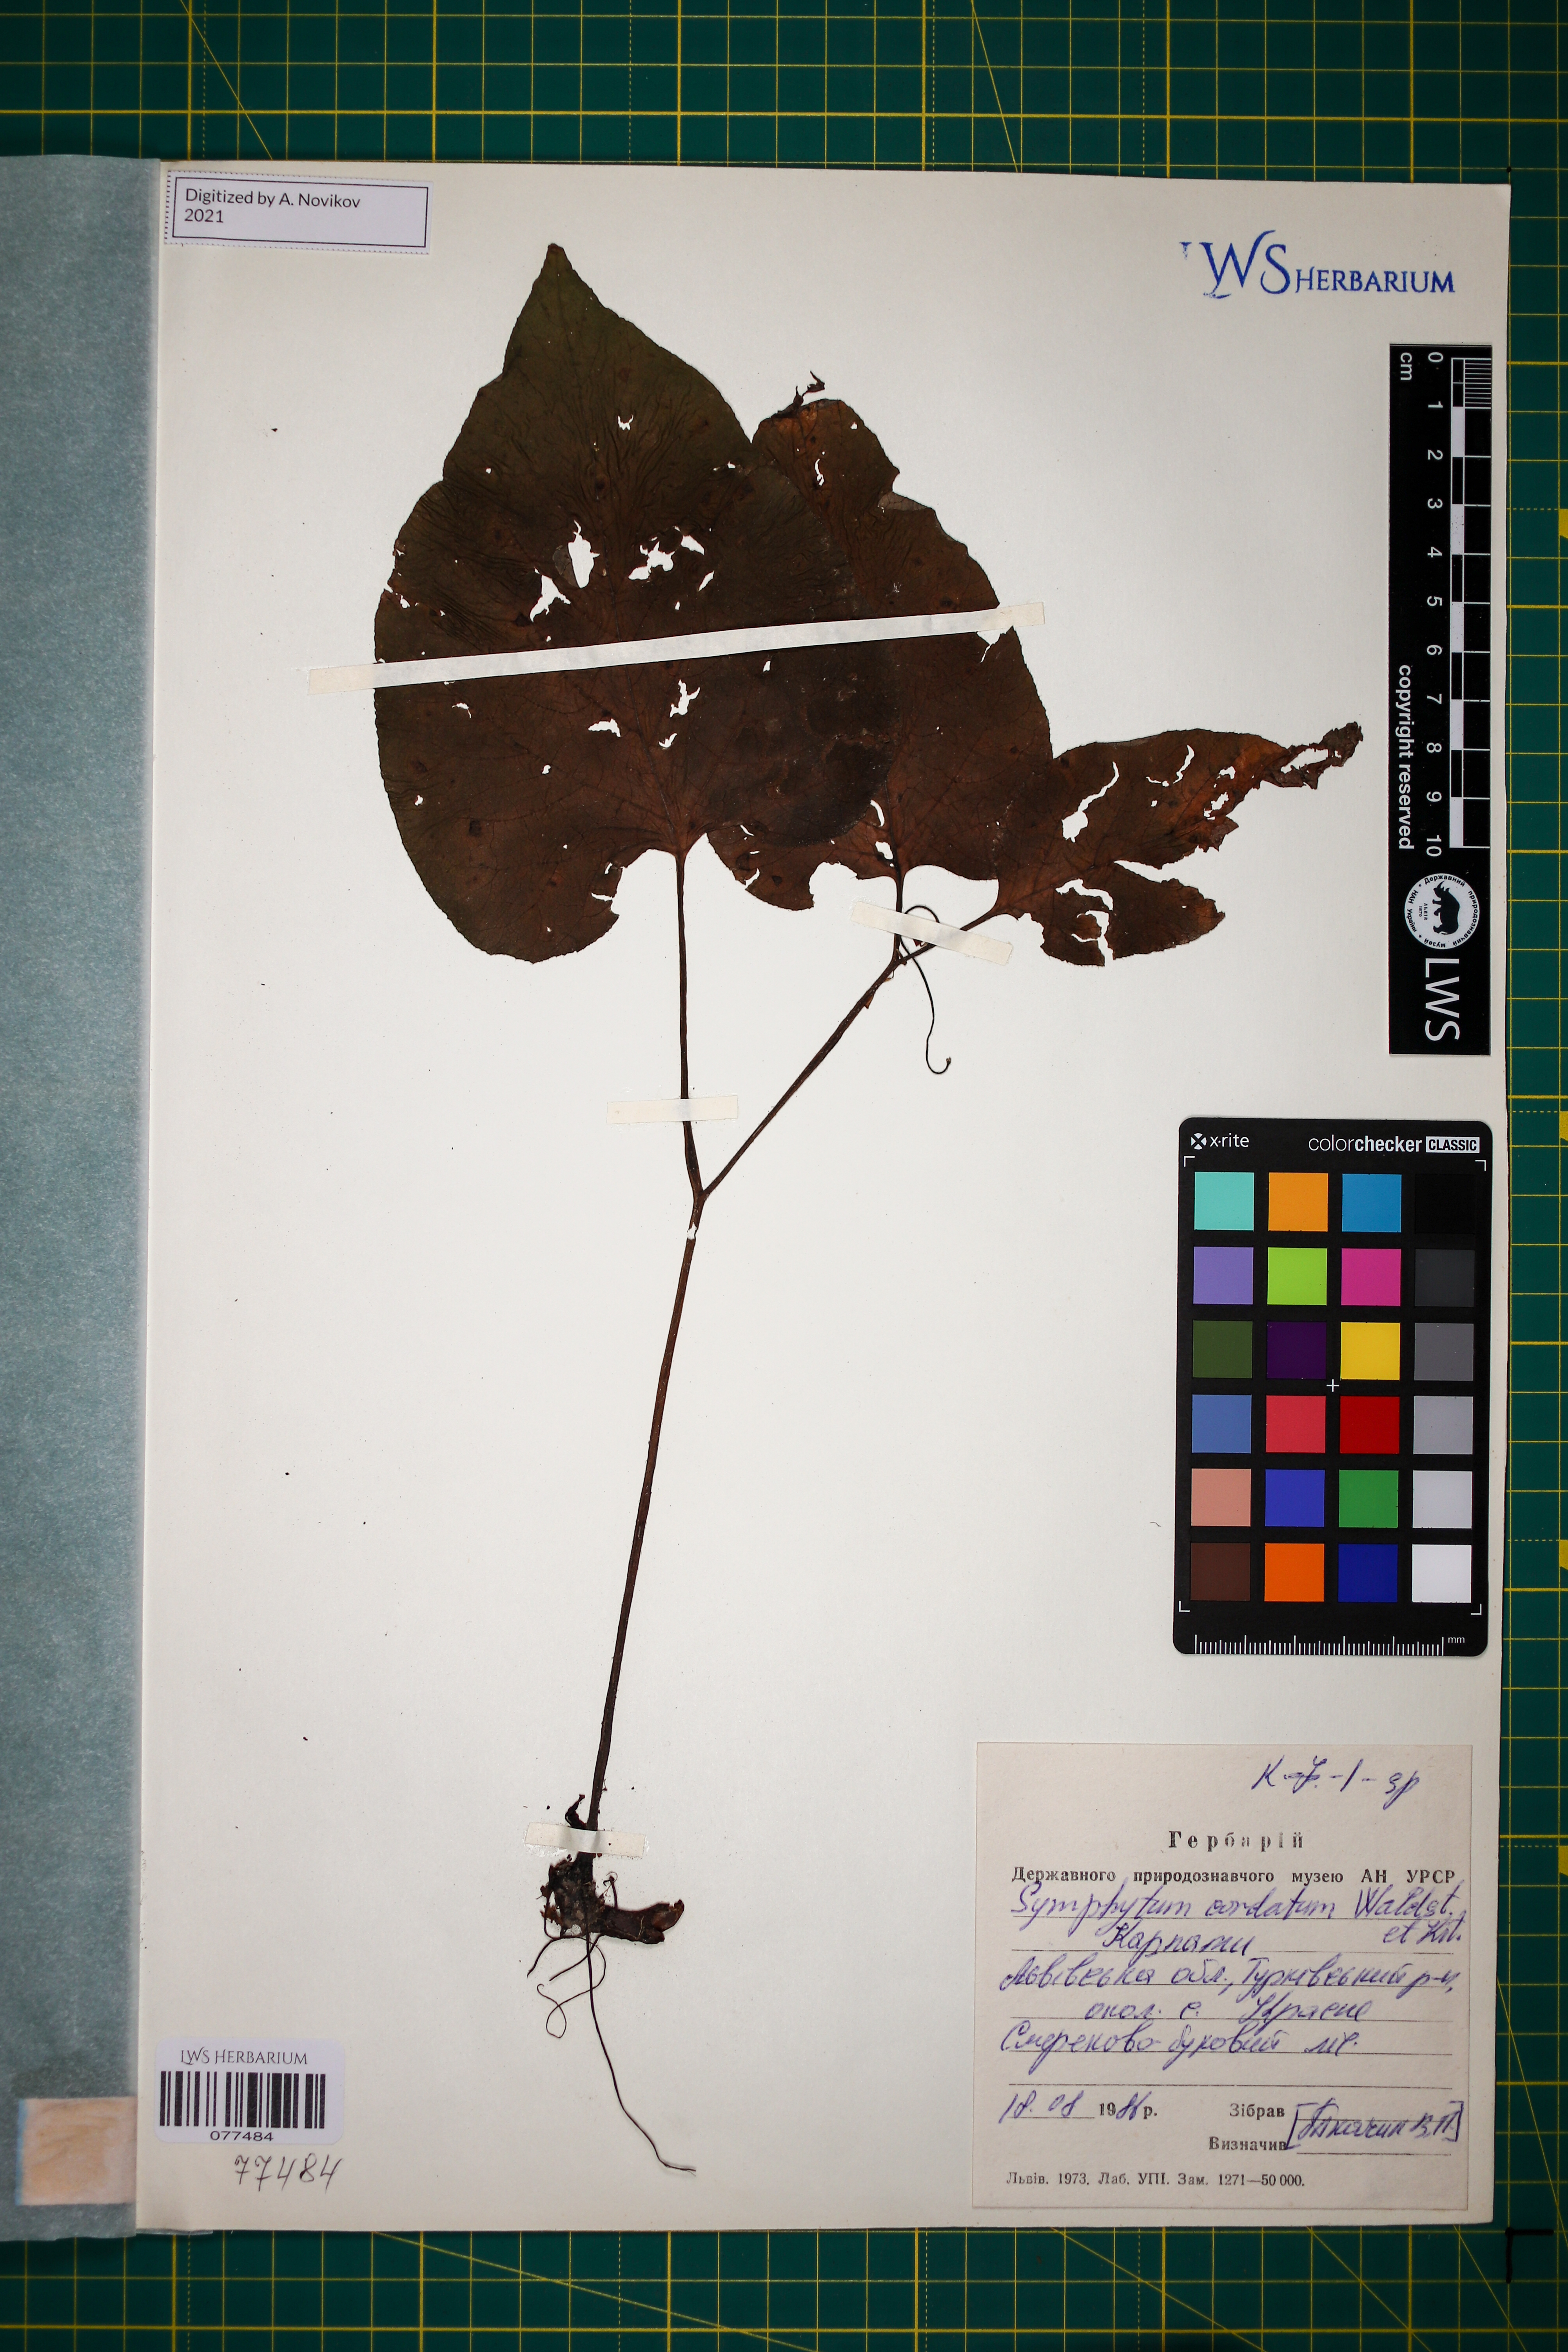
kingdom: Plantae
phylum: Tracheophyta
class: Magnoliopsida
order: Boraginales
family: Boraginaceae
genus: Symphytum
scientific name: Symphytum cordatum
